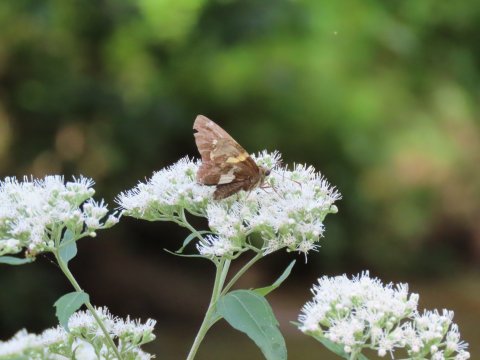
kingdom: Animalia
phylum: Arthropoda
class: Insecta
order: Lepidoptera
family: Hesperiidae
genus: Epargyreus
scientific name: Epargyreus clarus
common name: Silver-spotted Skipper
